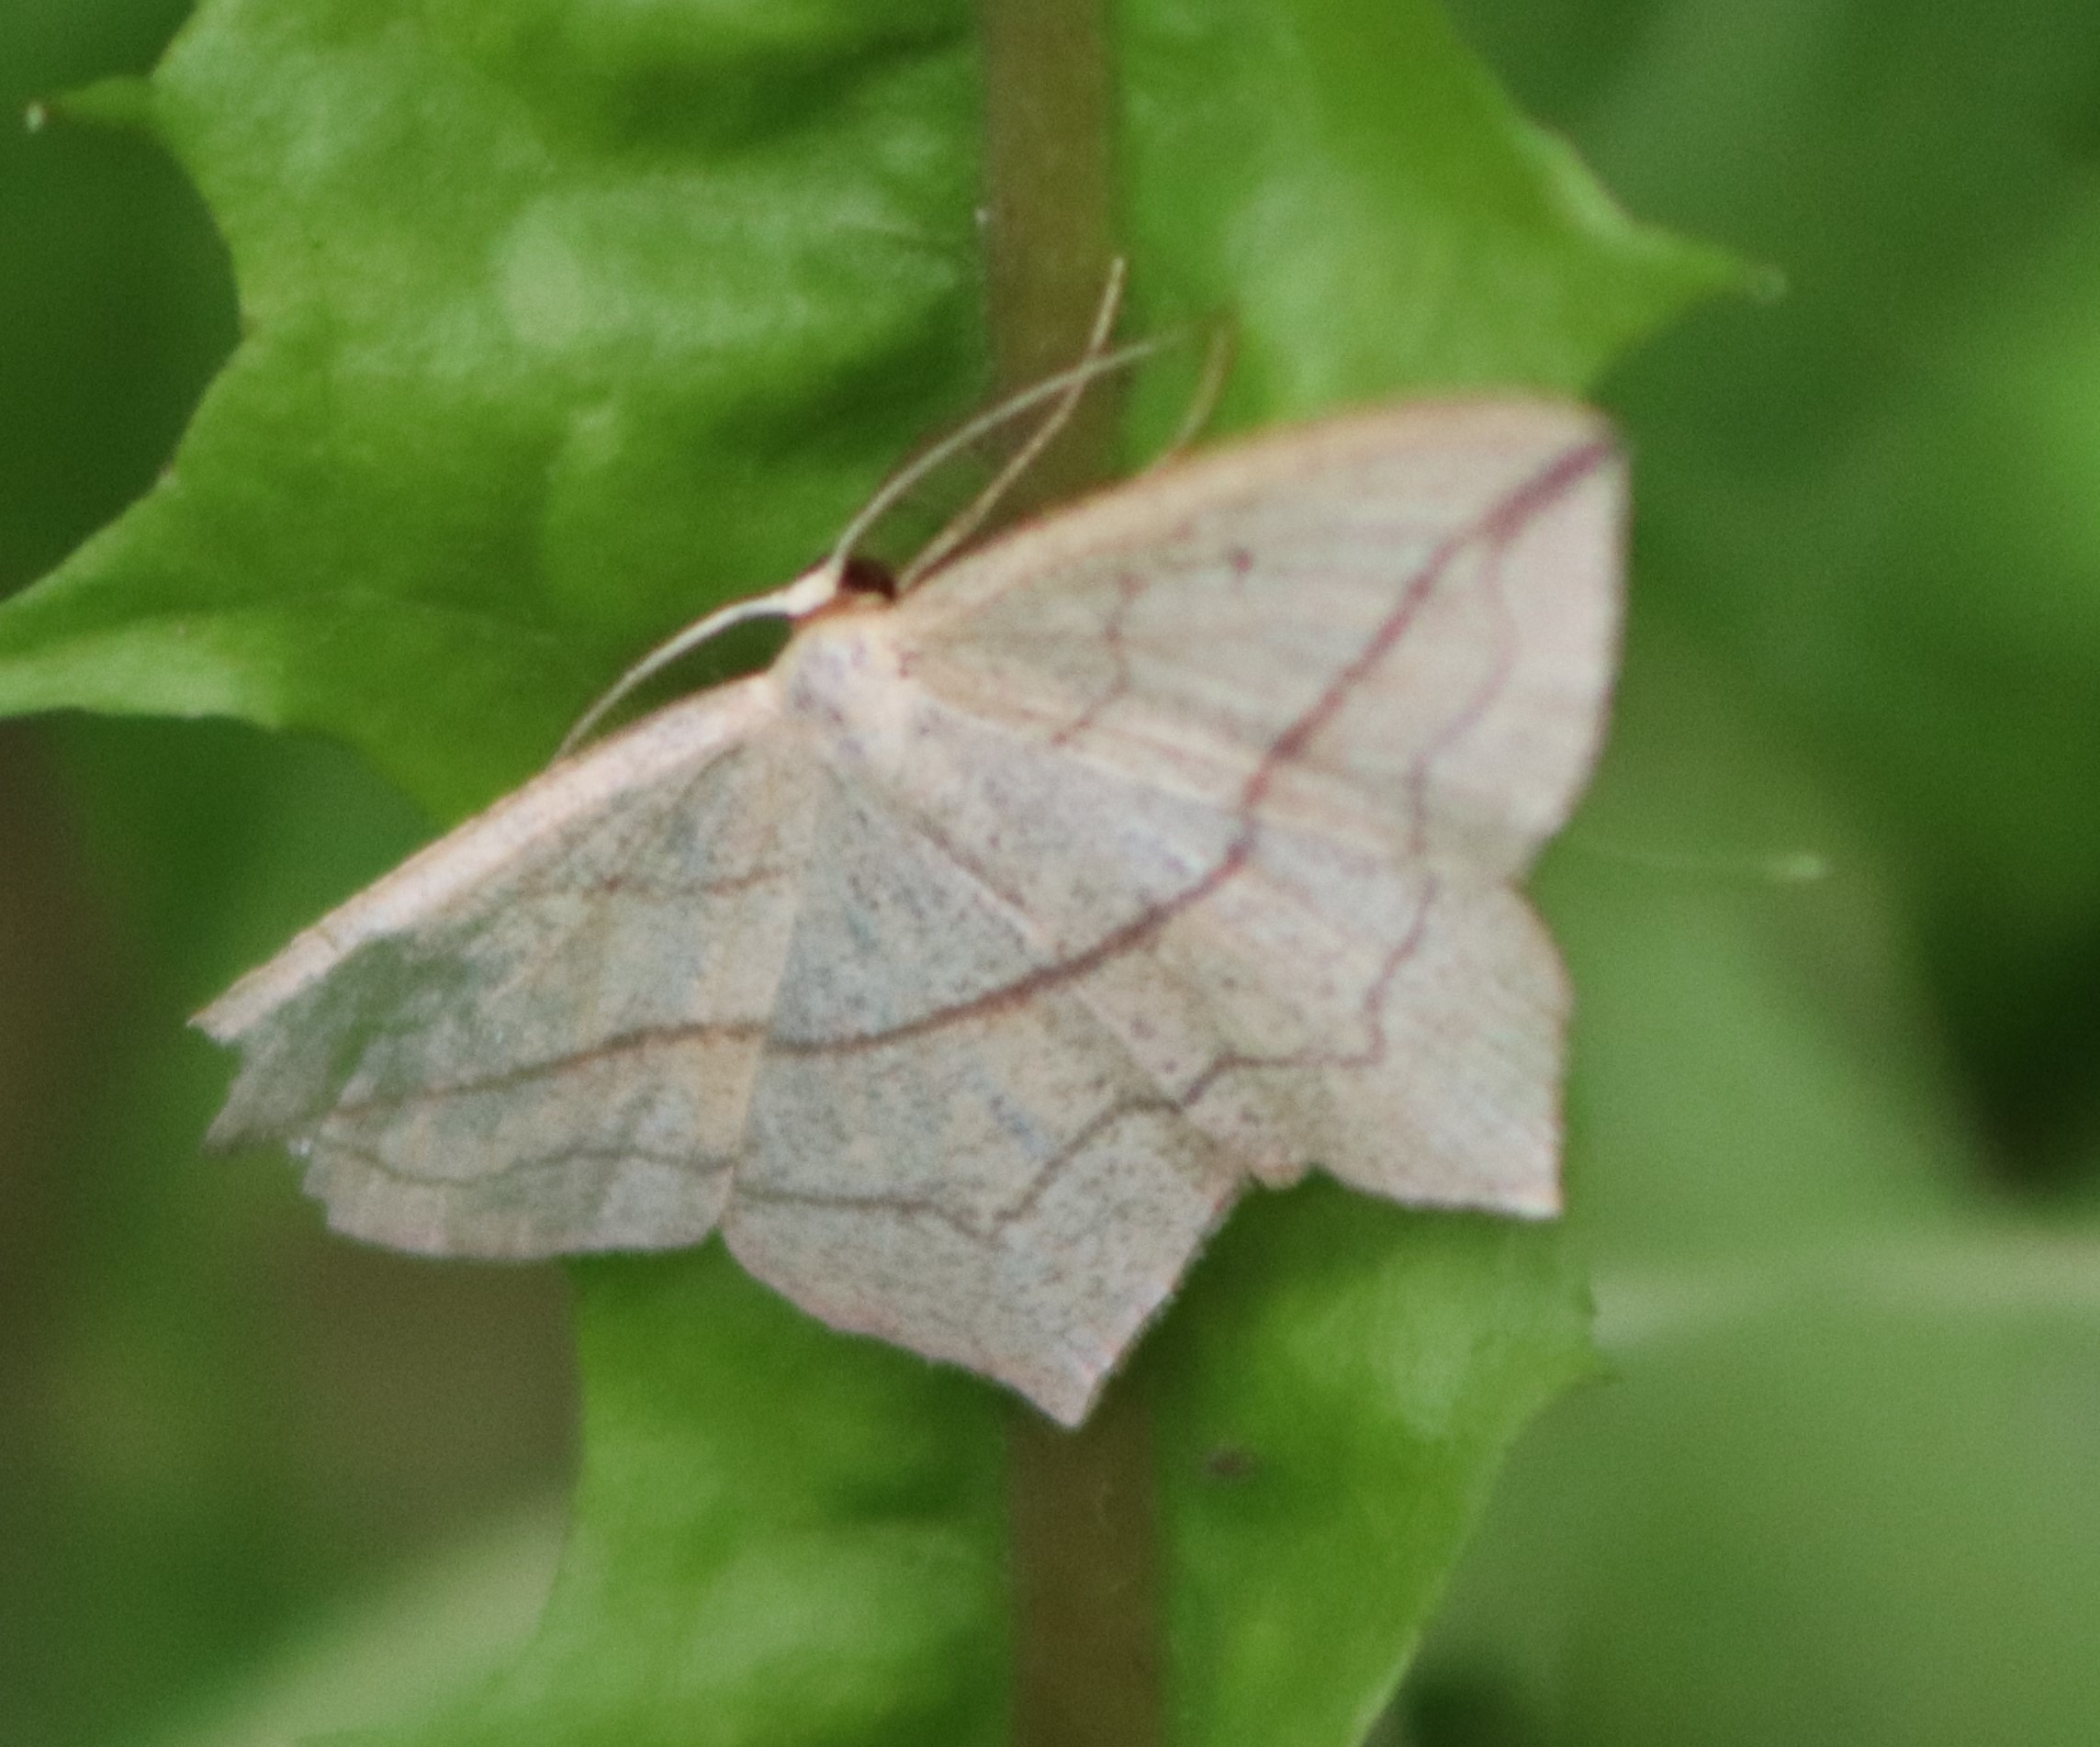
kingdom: Animalia
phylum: Arthropoda
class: Insecta
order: Lepidoptera
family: Geometridae
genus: Timandra
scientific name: Timandra comae
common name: Gul syremåler
